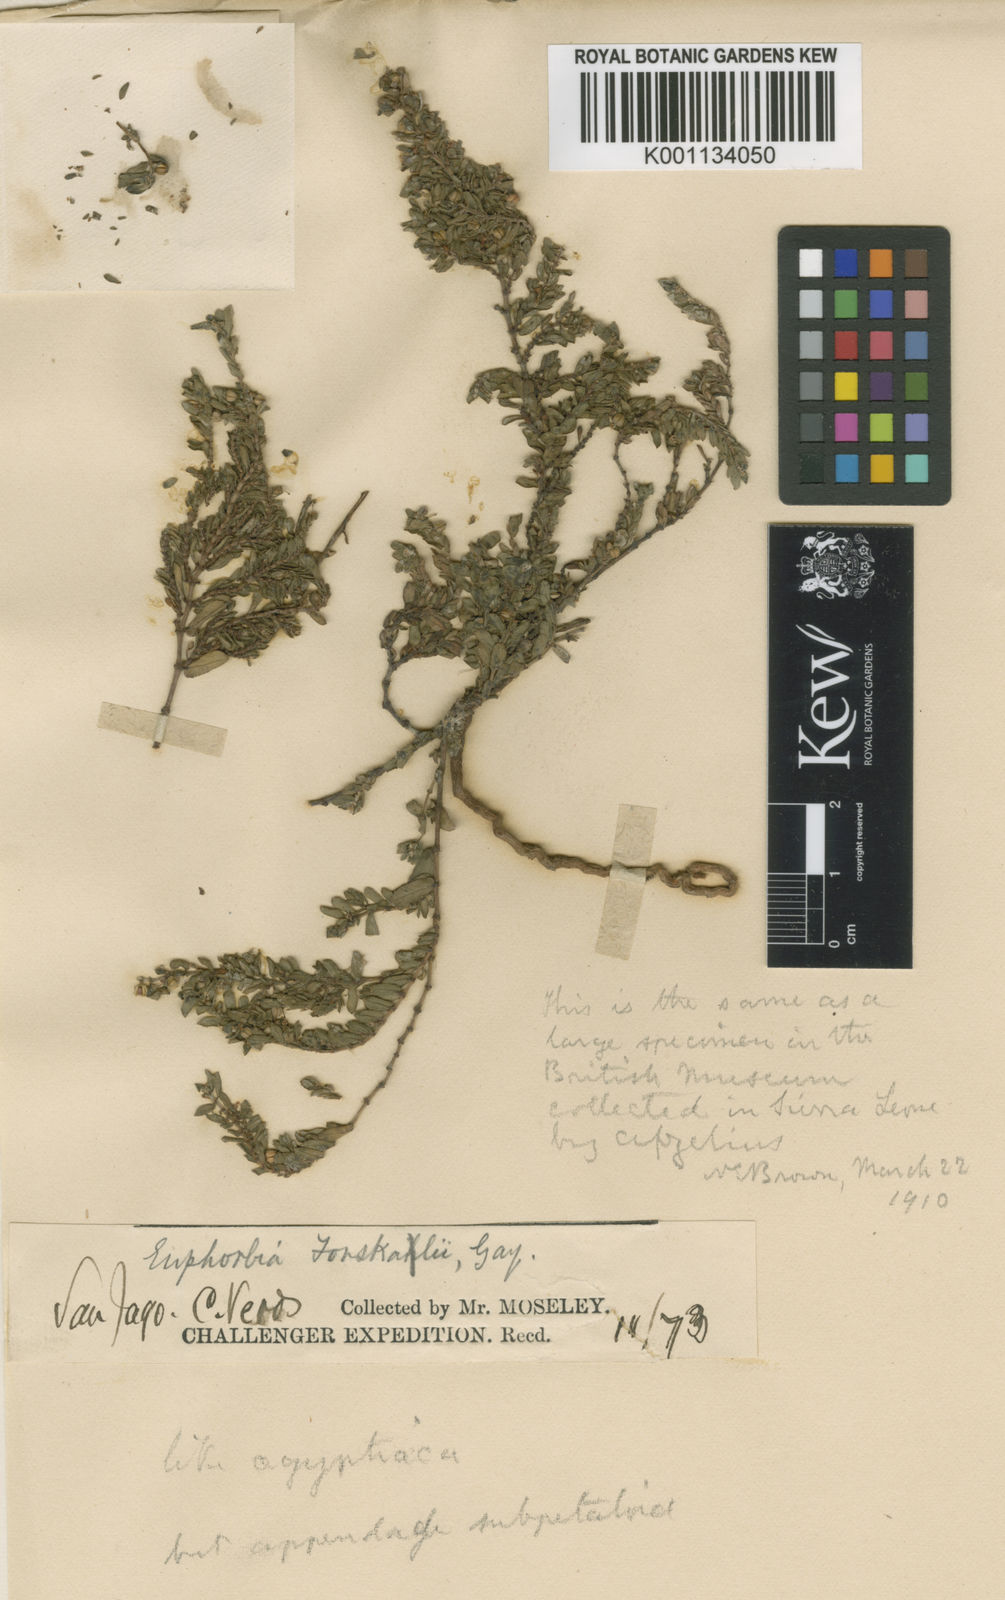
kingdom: Plantae
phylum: Tracheophyta
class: Magnoliopsida
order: Malpighiales
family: Euphorbiaceae
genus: Euphorbia
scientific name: Euphorbia
